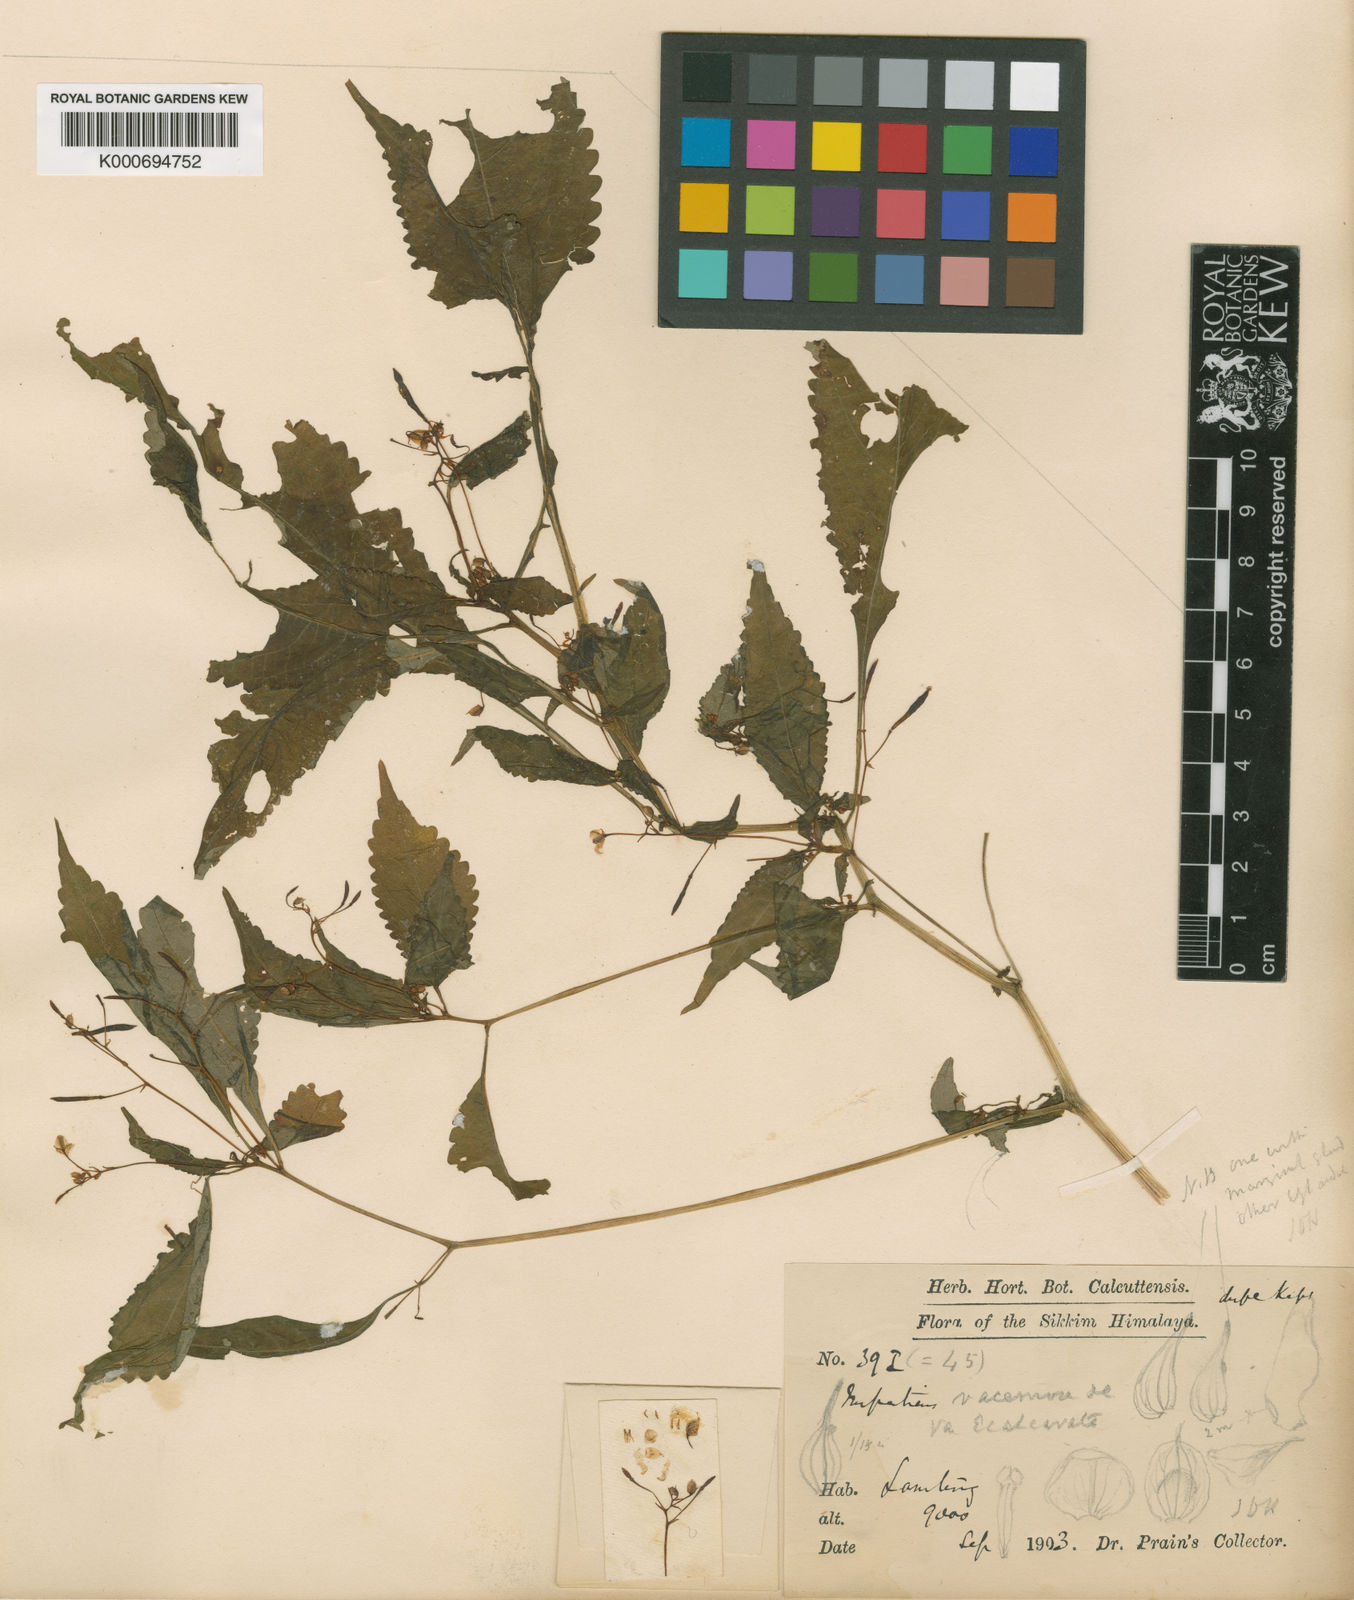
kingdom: Plantae
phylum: Tracheophyta
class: Magnoliopsida
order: Ericales
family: Balsaminaceae
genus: Impatiens
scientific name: Impatiens racemosa
